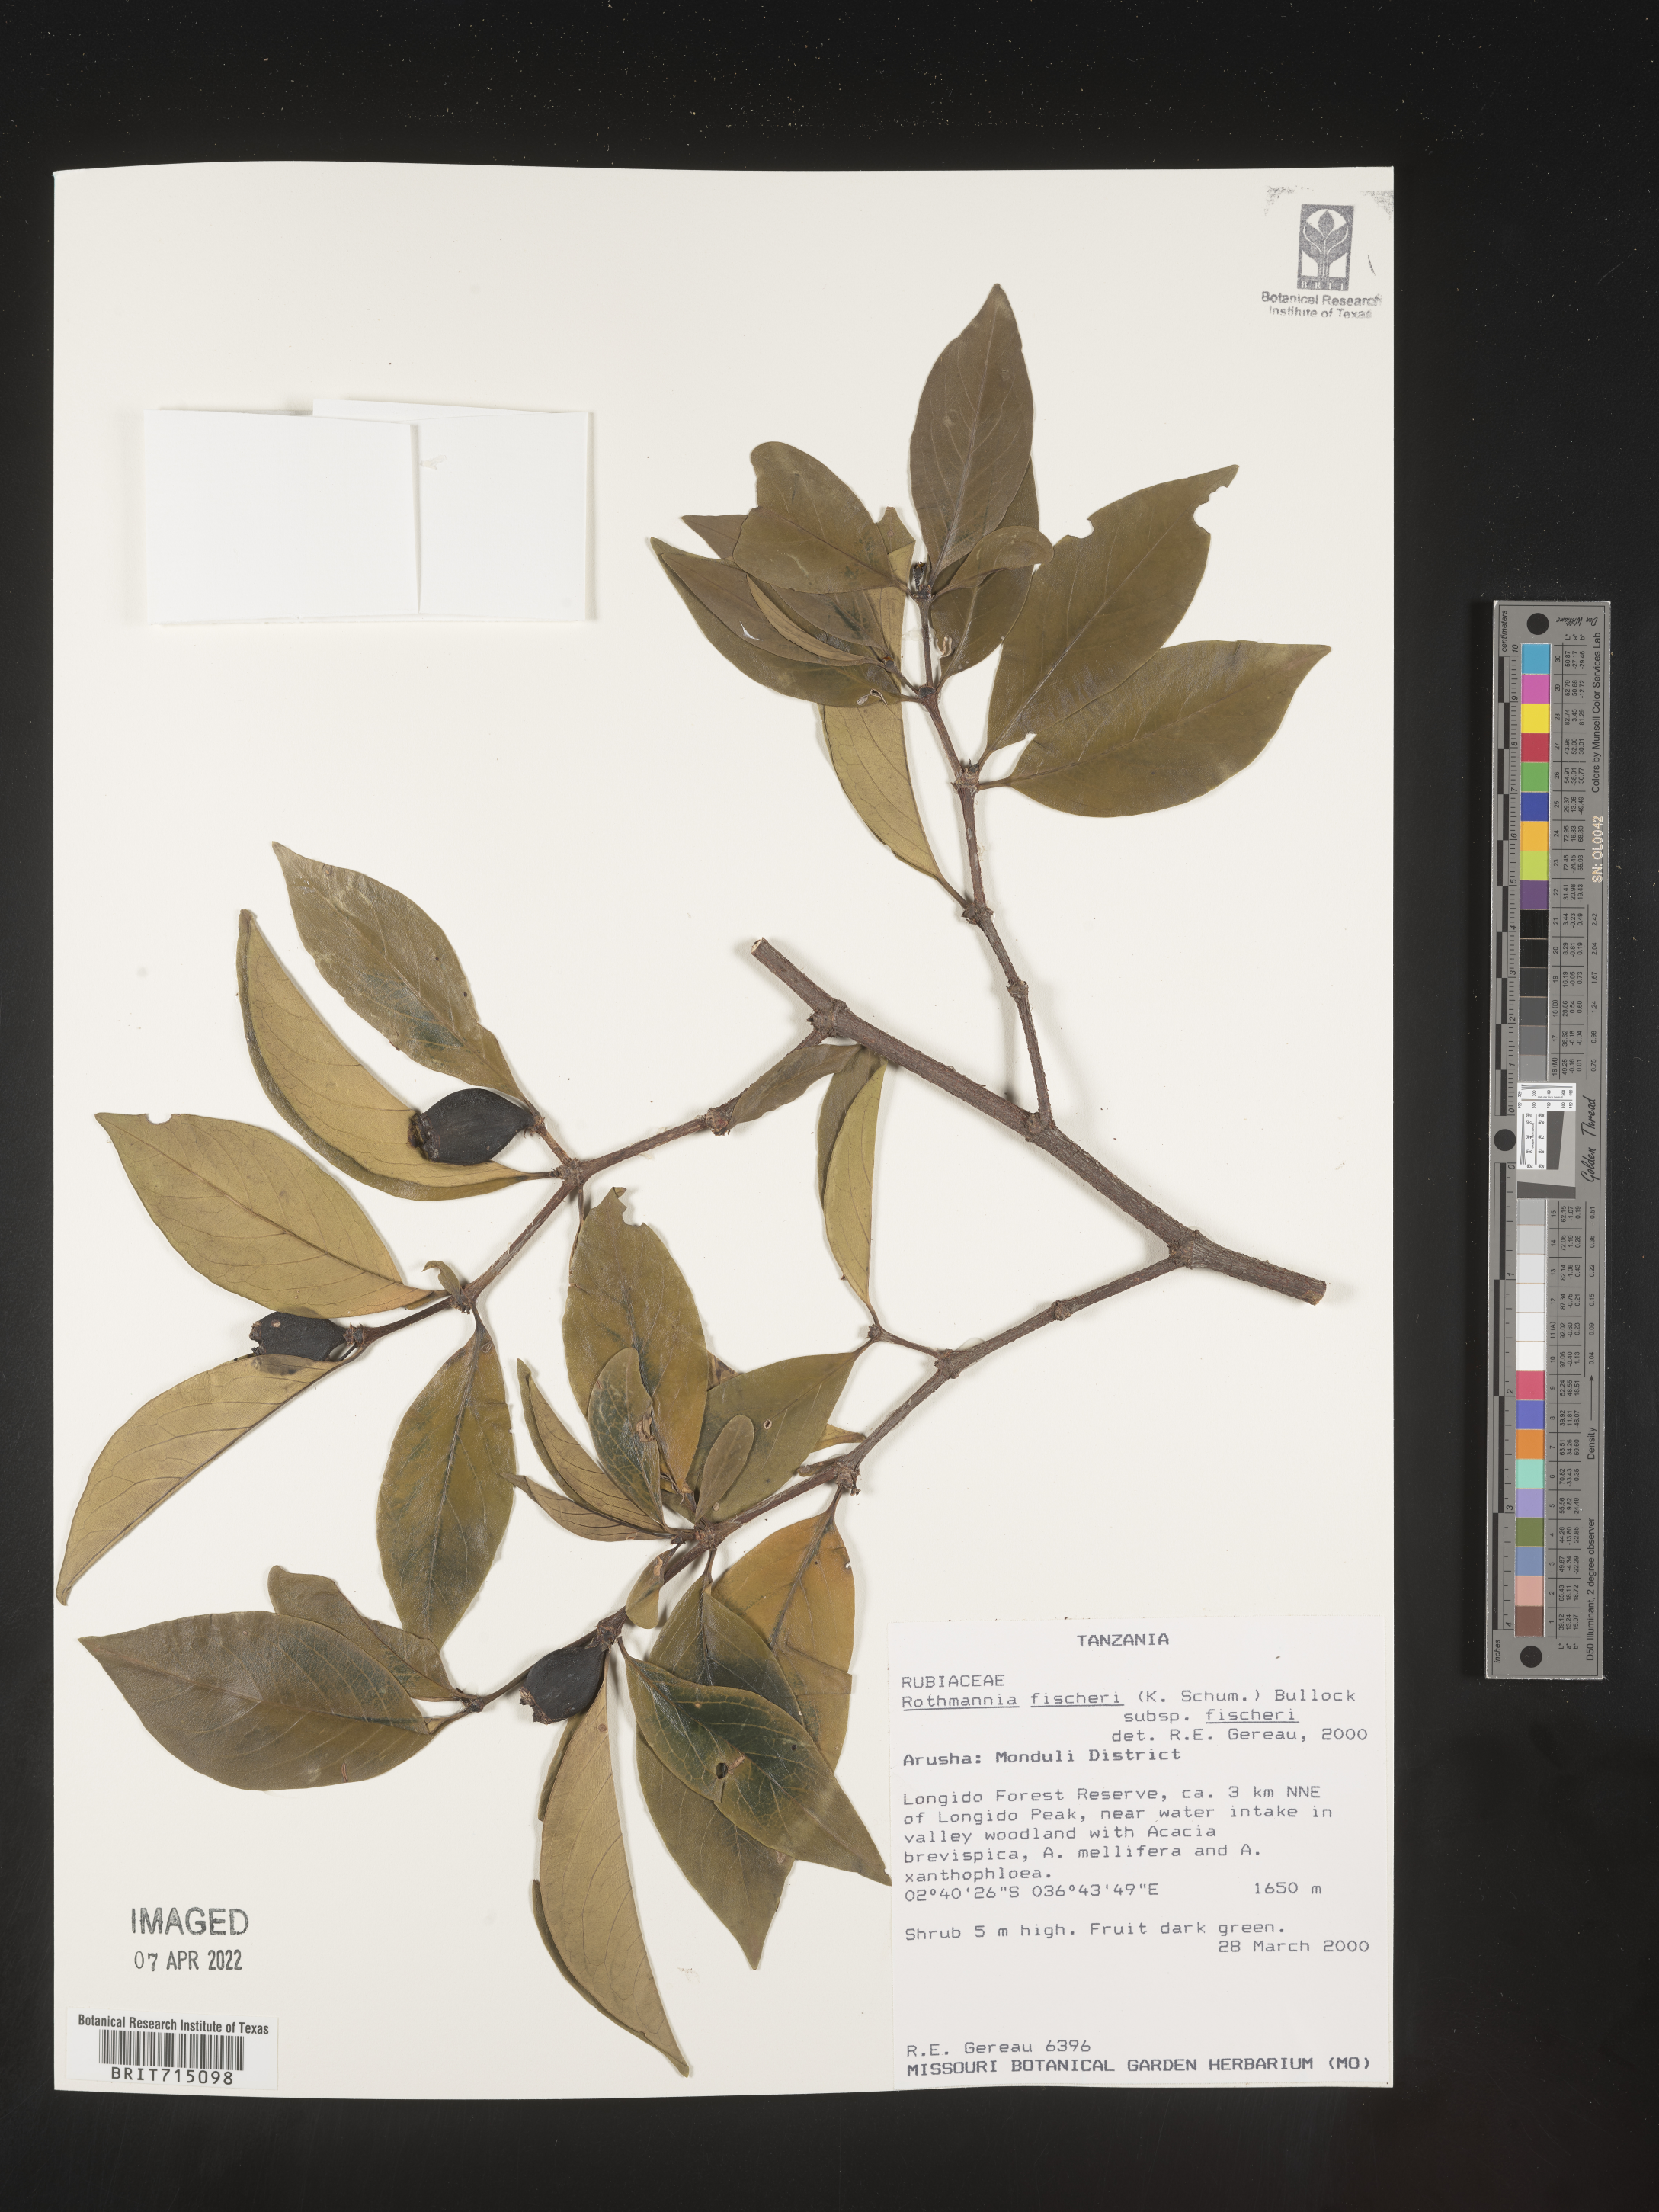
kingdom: Plantae
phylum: Tracheophyta
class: Magnoliopsida
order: Gentianales
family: Rubiaceae
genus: Rothmannia
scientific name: Rothmannia
